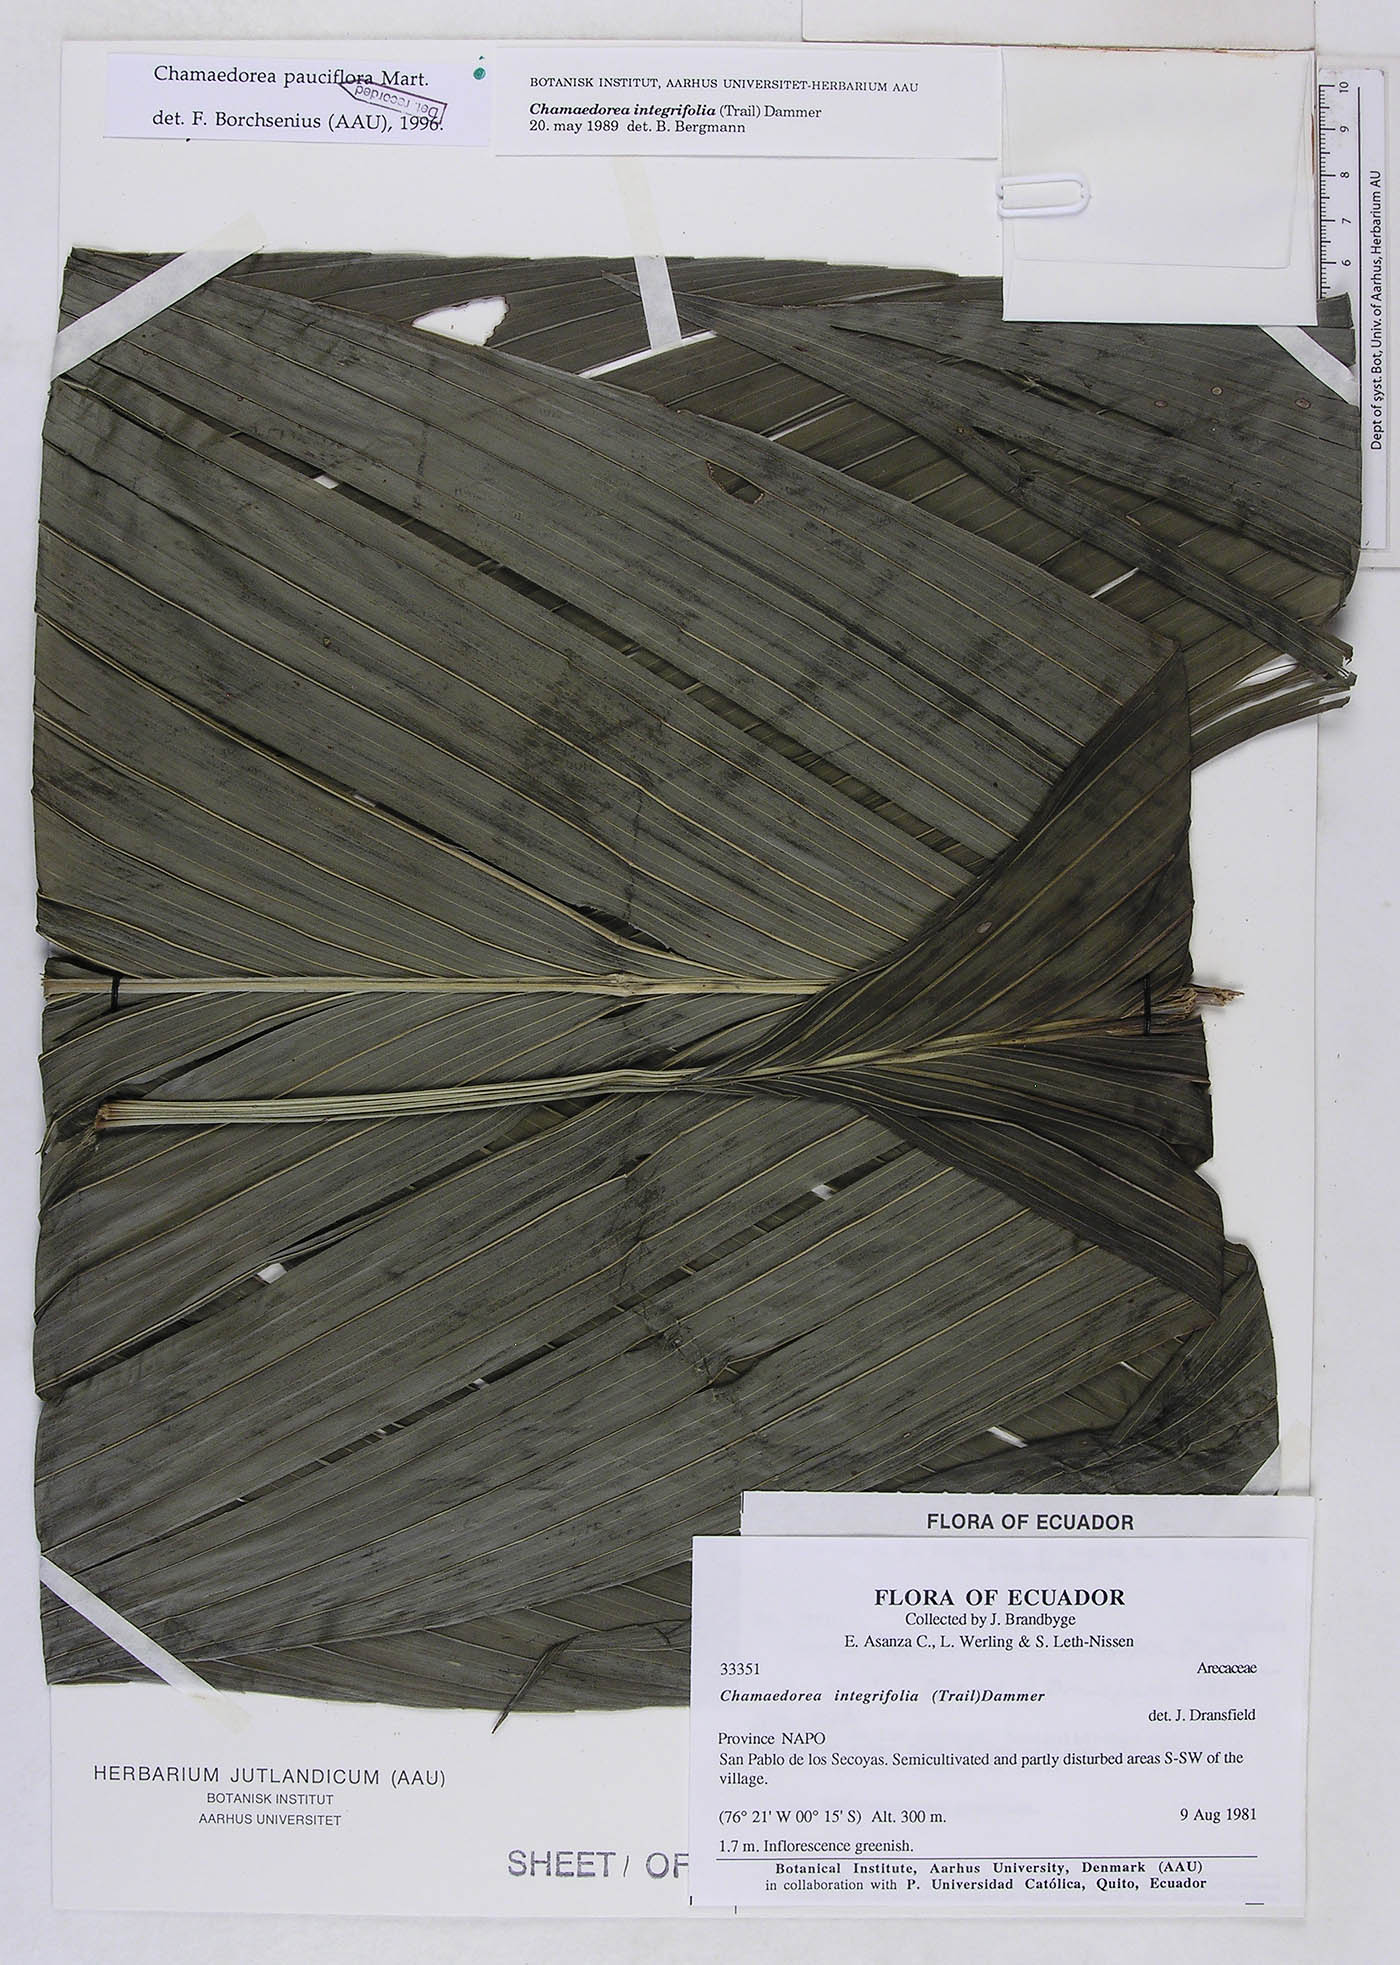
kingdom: Plantae
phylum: Tracheophyta
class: Liliopsida
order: Arecales
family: Arecaceae
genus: Chamaedorea
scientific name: Chamaedorea pauciflora
